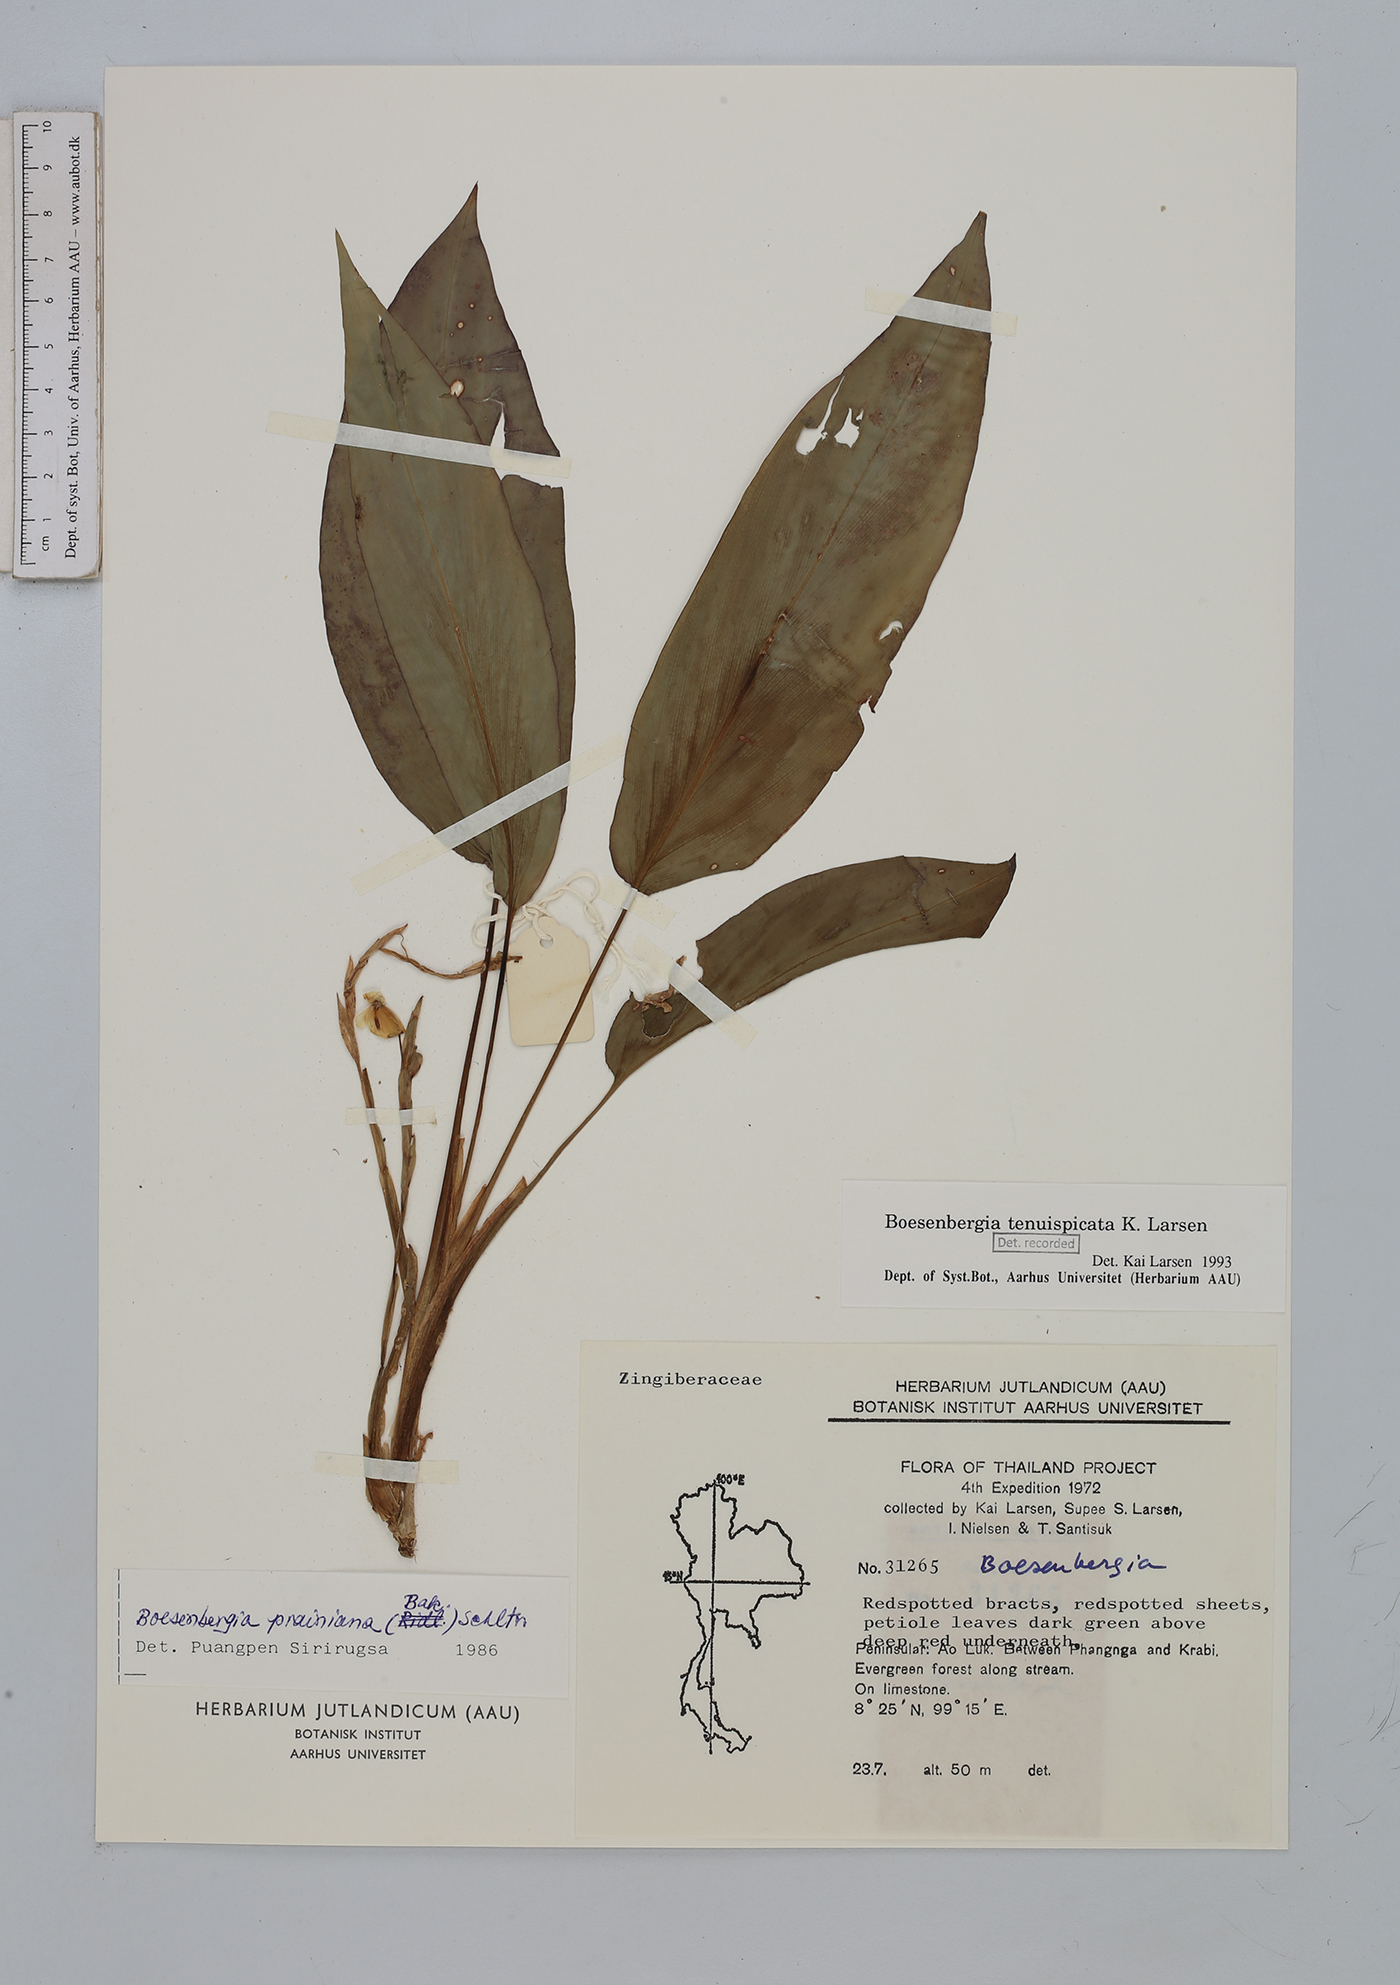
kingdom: Plantae
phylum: Tracheophyta
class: Liliopsida
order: Zingiberales
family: Zingiberaceae
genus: Boesenbergia
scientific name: Boesenbergia tenuispicata
